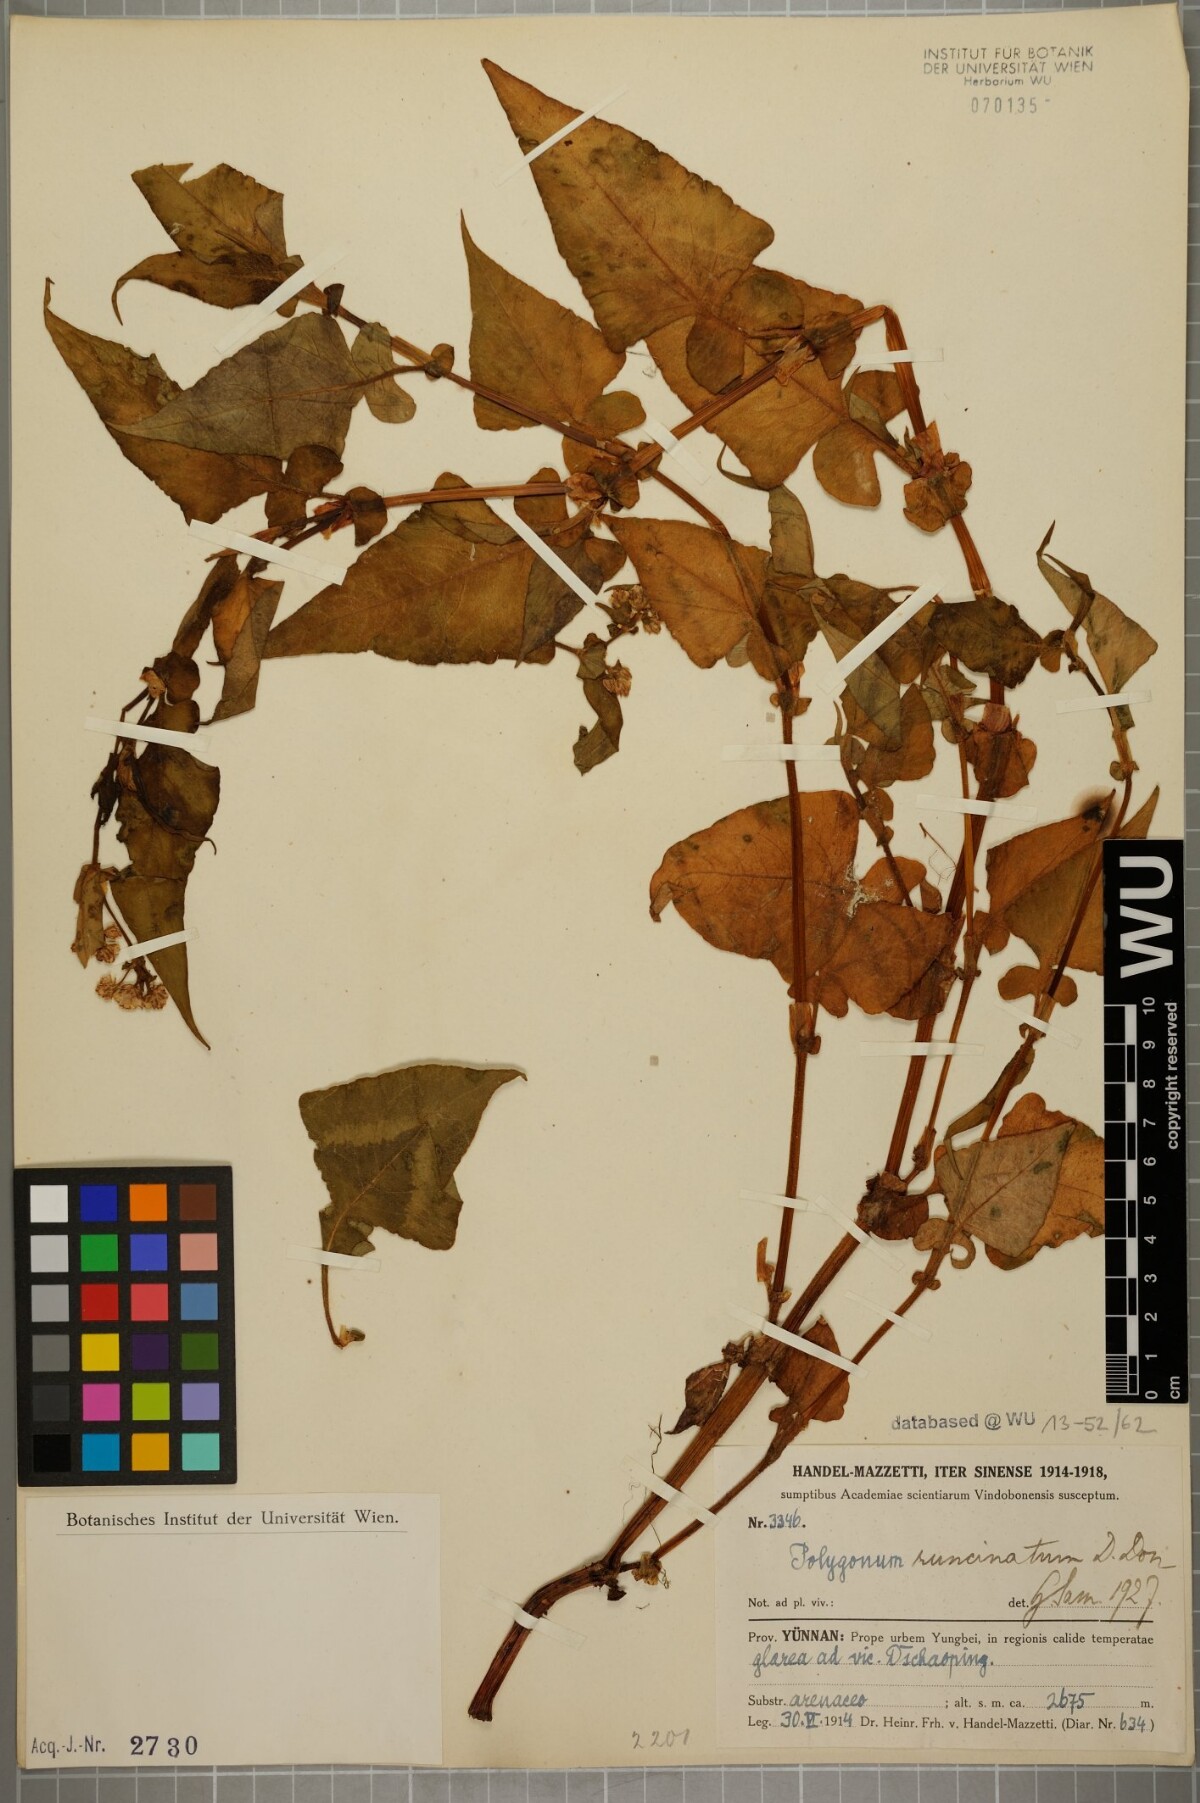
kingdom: Plantae
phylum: Tracheophyta
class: Magnoliopsida
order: Caryophyllales
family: Polygonaceae
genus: Persicaria
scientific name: Persicaria runcinata
